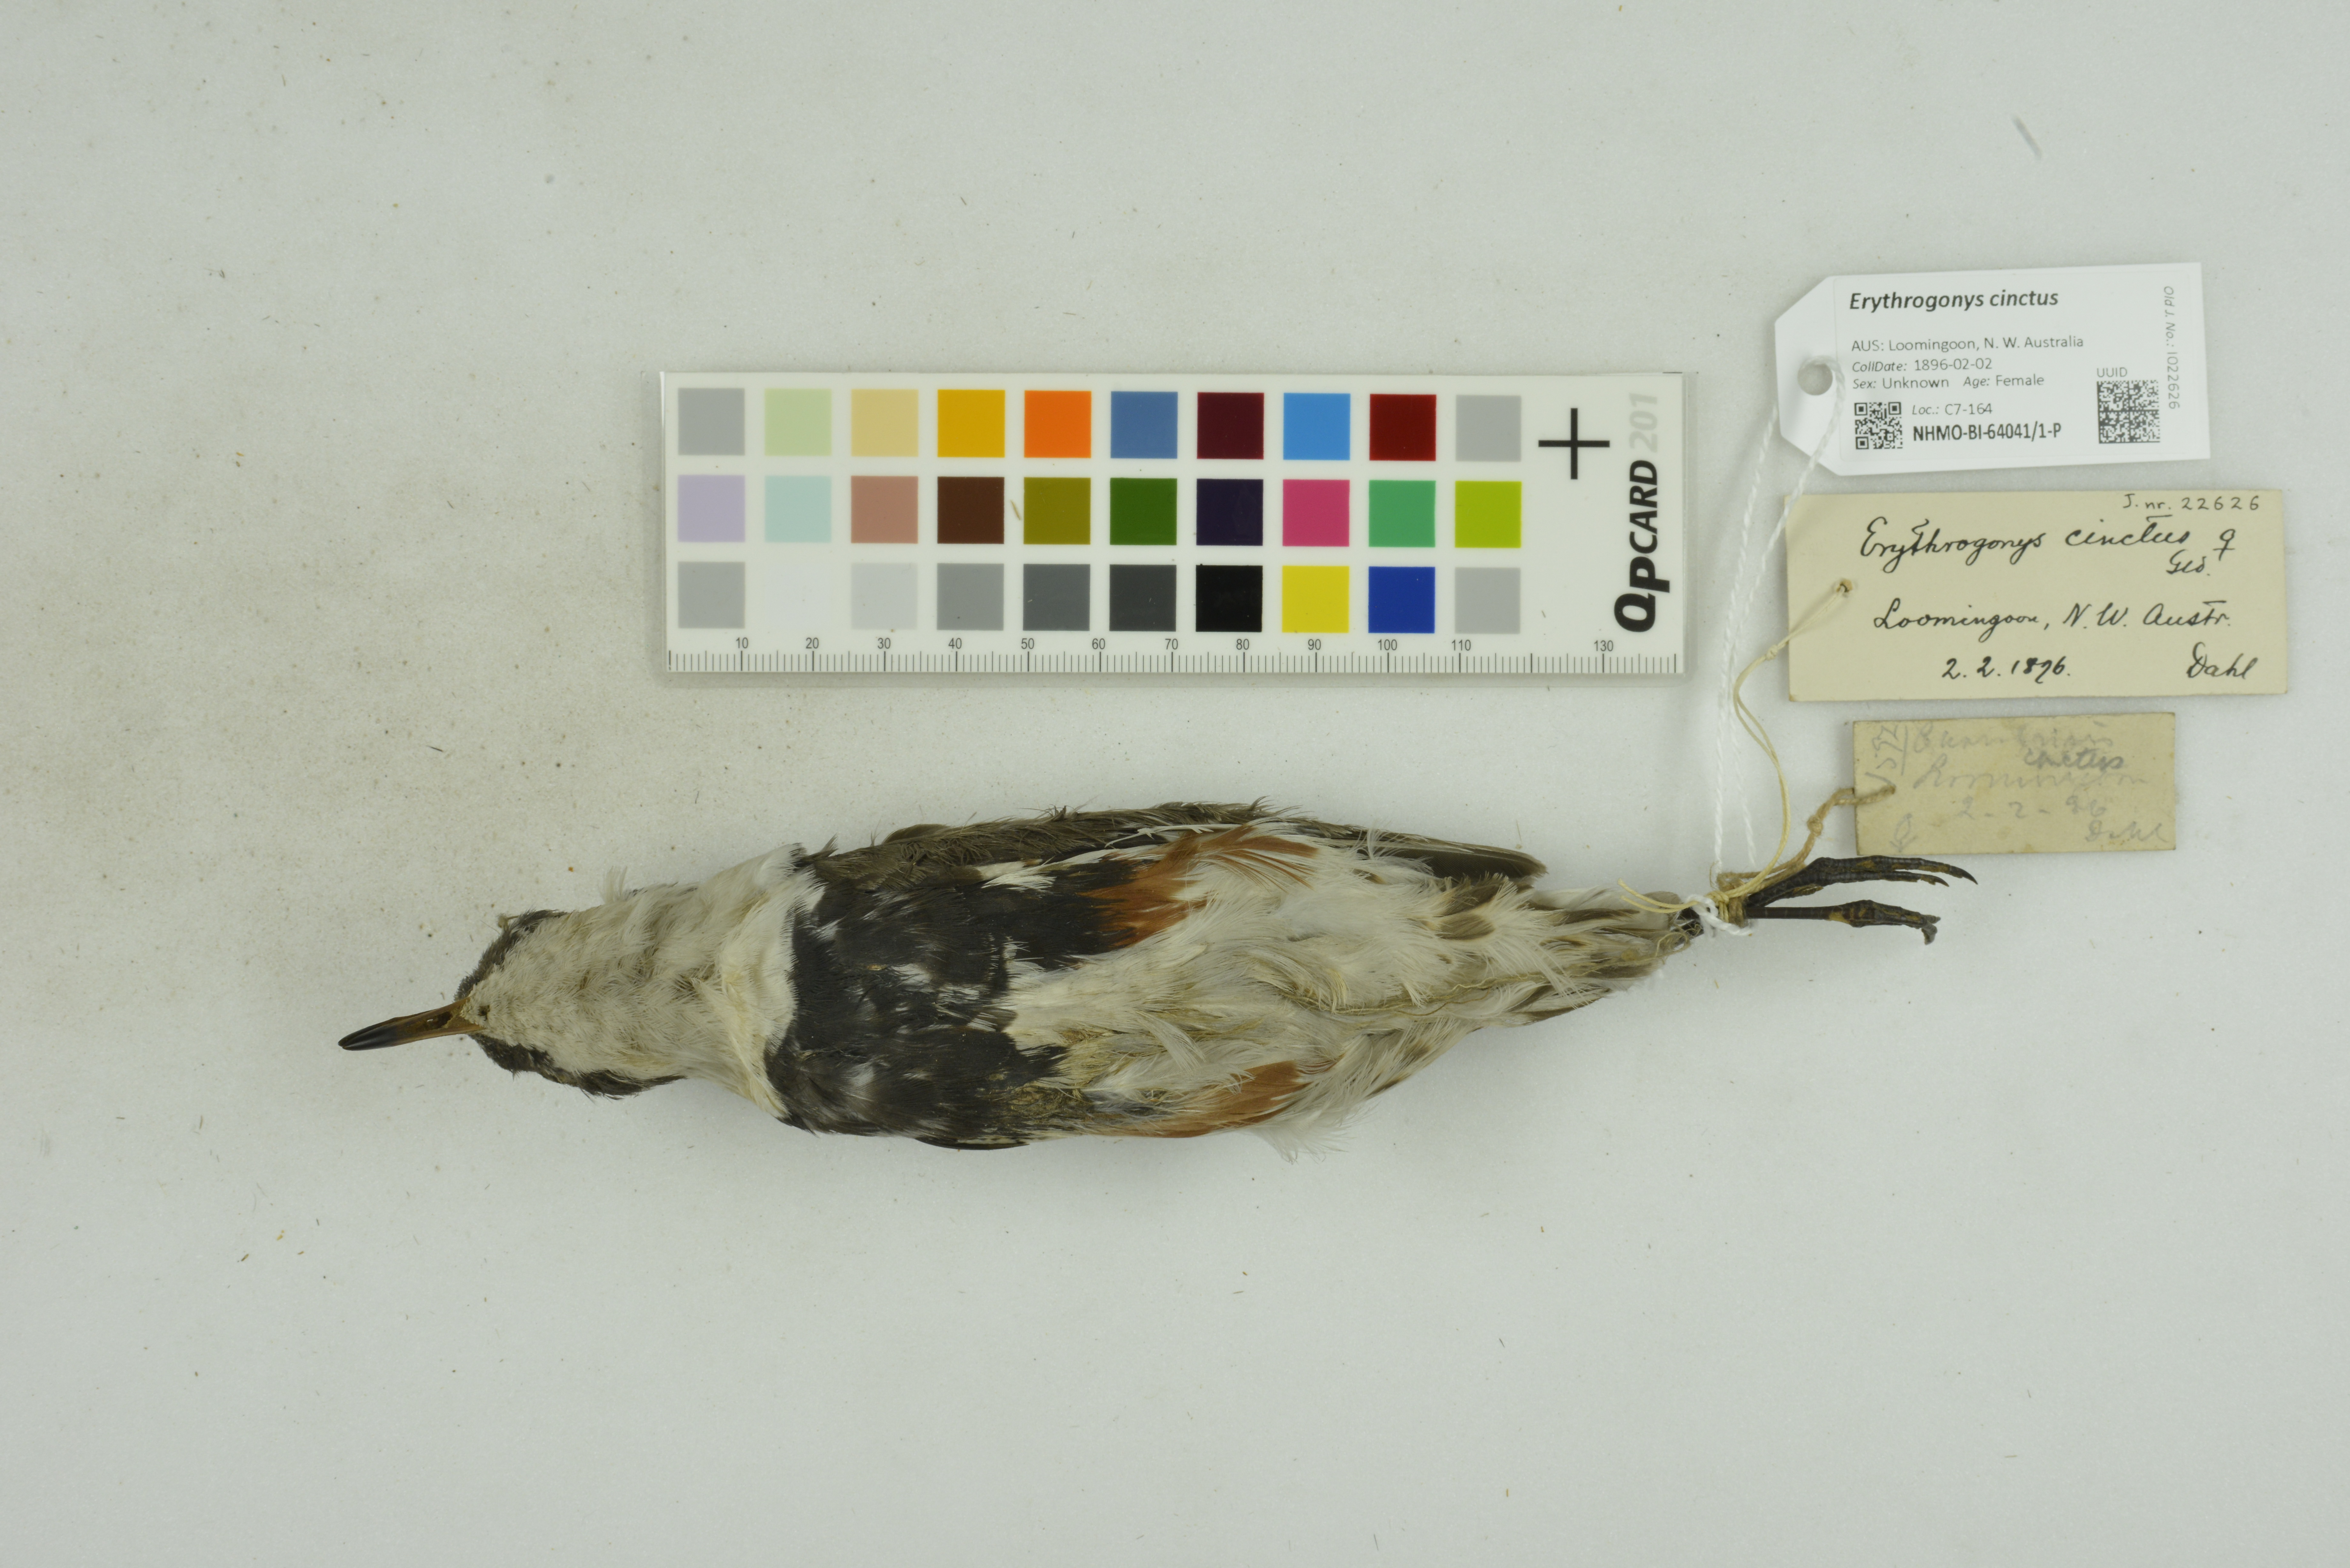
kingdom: Animalia
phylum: Chordata
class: Aves
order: Charadriiformes
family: Charadriidae
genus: Erythrogonys
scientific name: Erythrogonys cinctus
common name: Red-kneed dotterel
